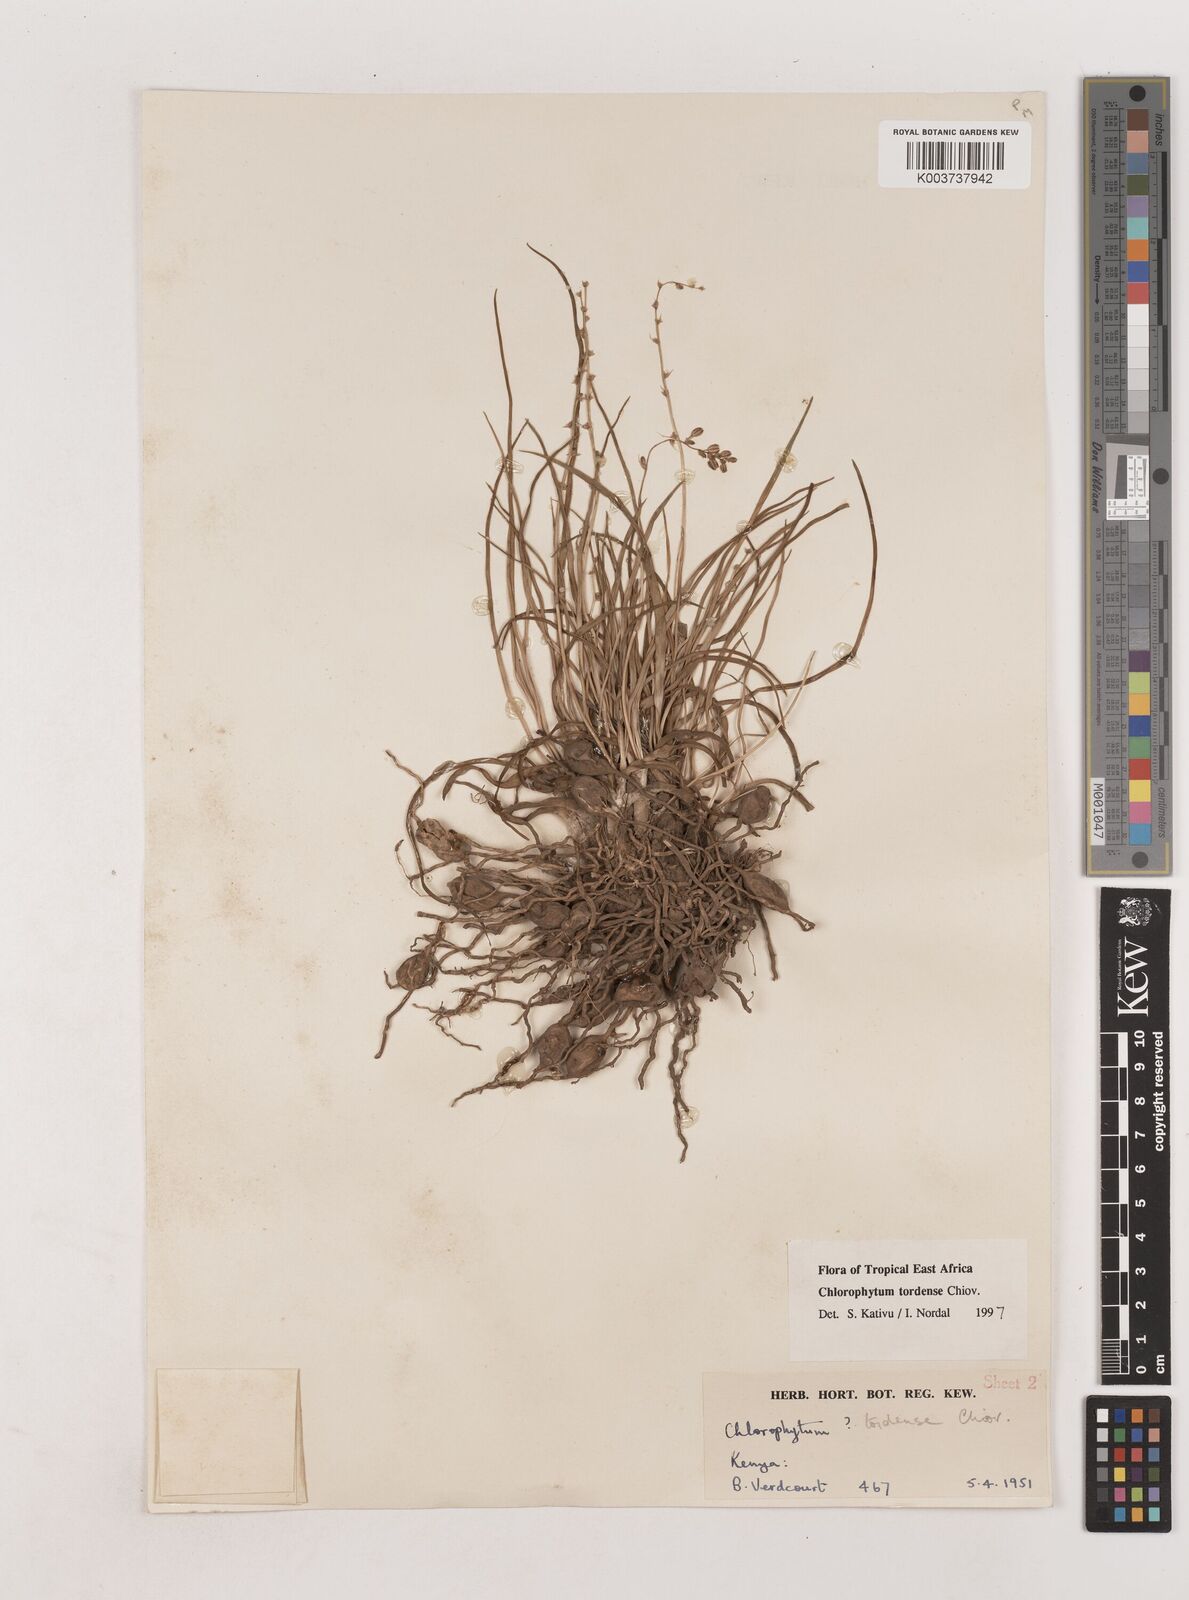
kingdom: Plantae
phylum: Tracheophyta
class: Liliopsida
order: Asparagales
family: Asparagaceae
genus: Chlorophytum
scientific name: Chlorophytum tordense
